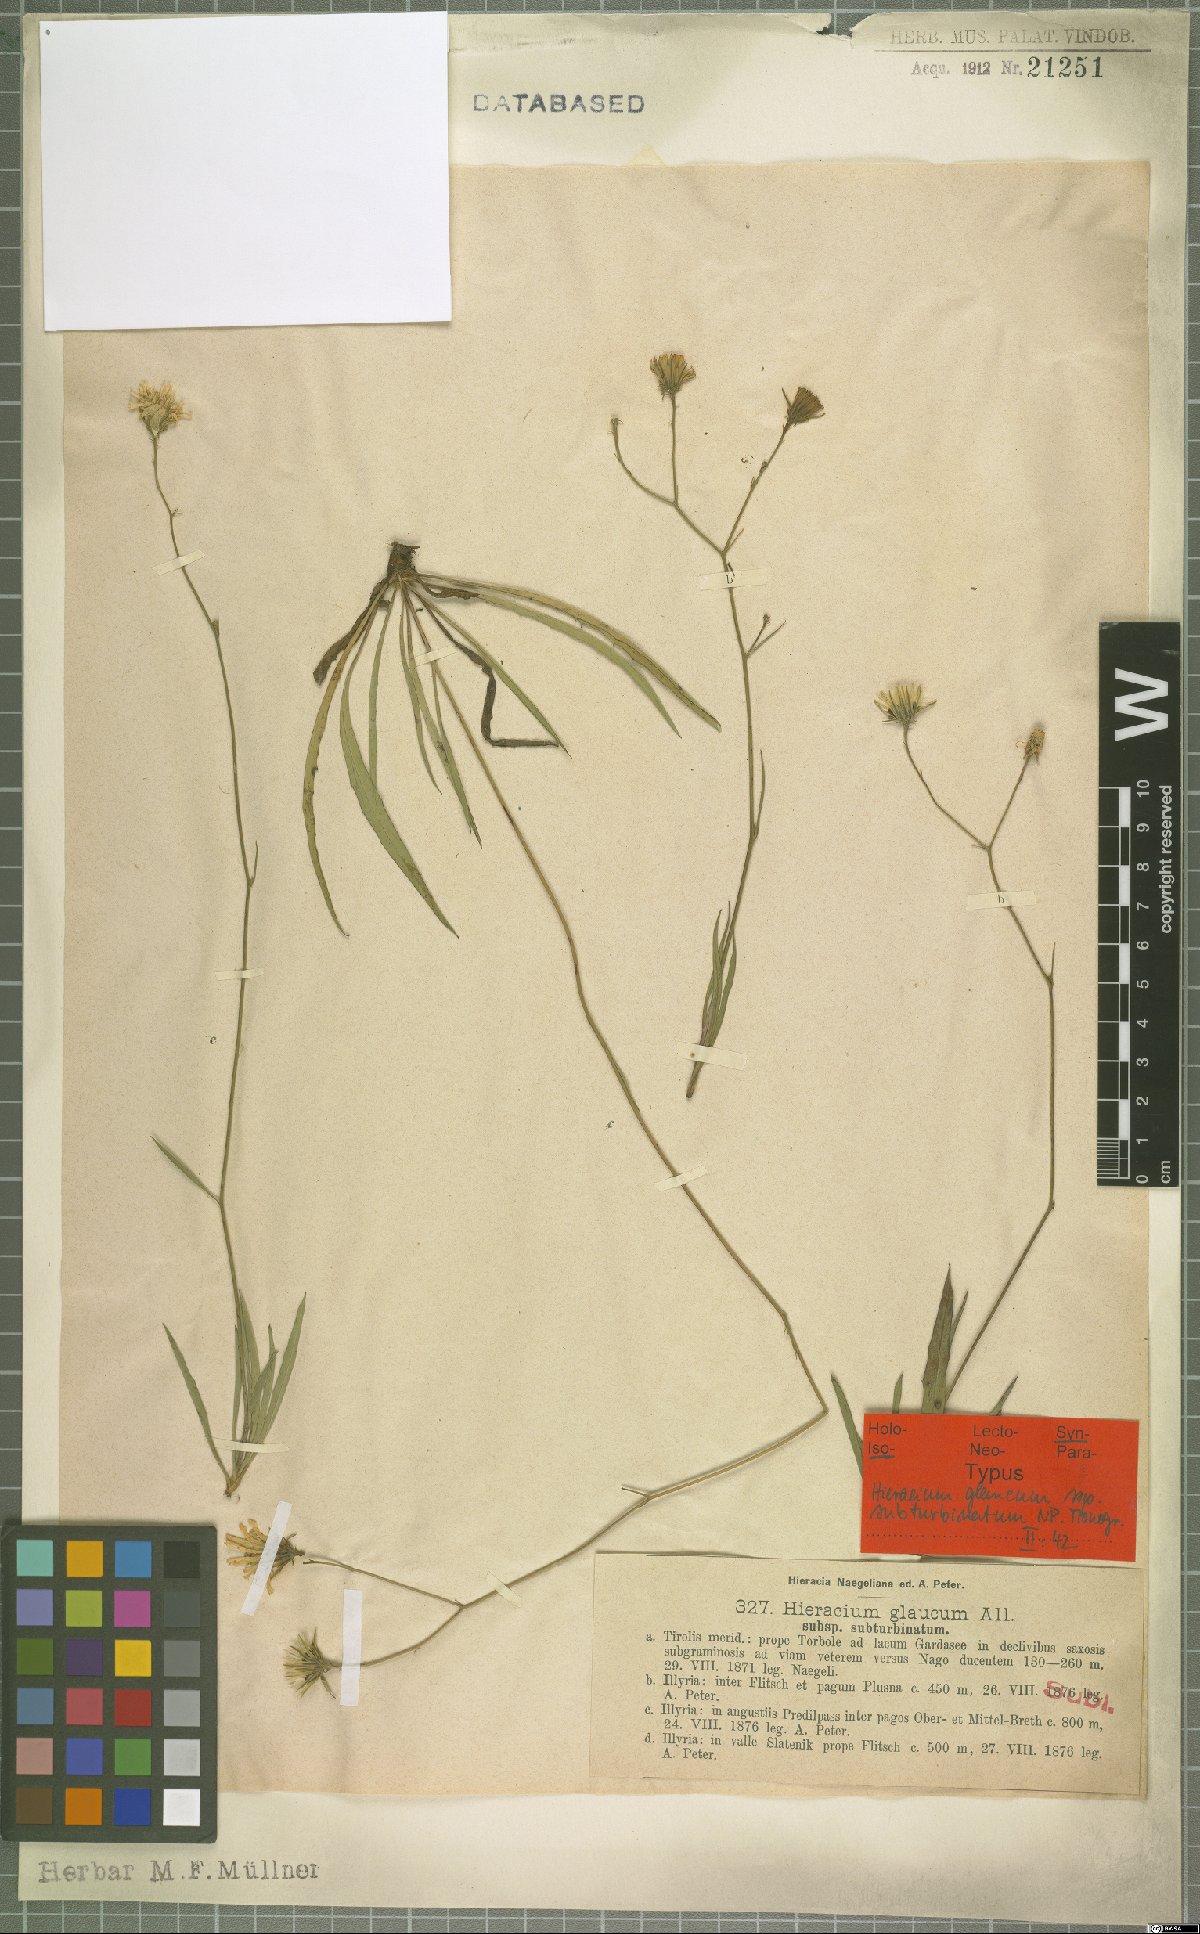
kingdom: Plantae
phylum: Tracheophyta
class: Magnoliopsida
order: Asterales
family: Asteraceae
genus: Hieracium
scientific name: Hieracium glaucum
